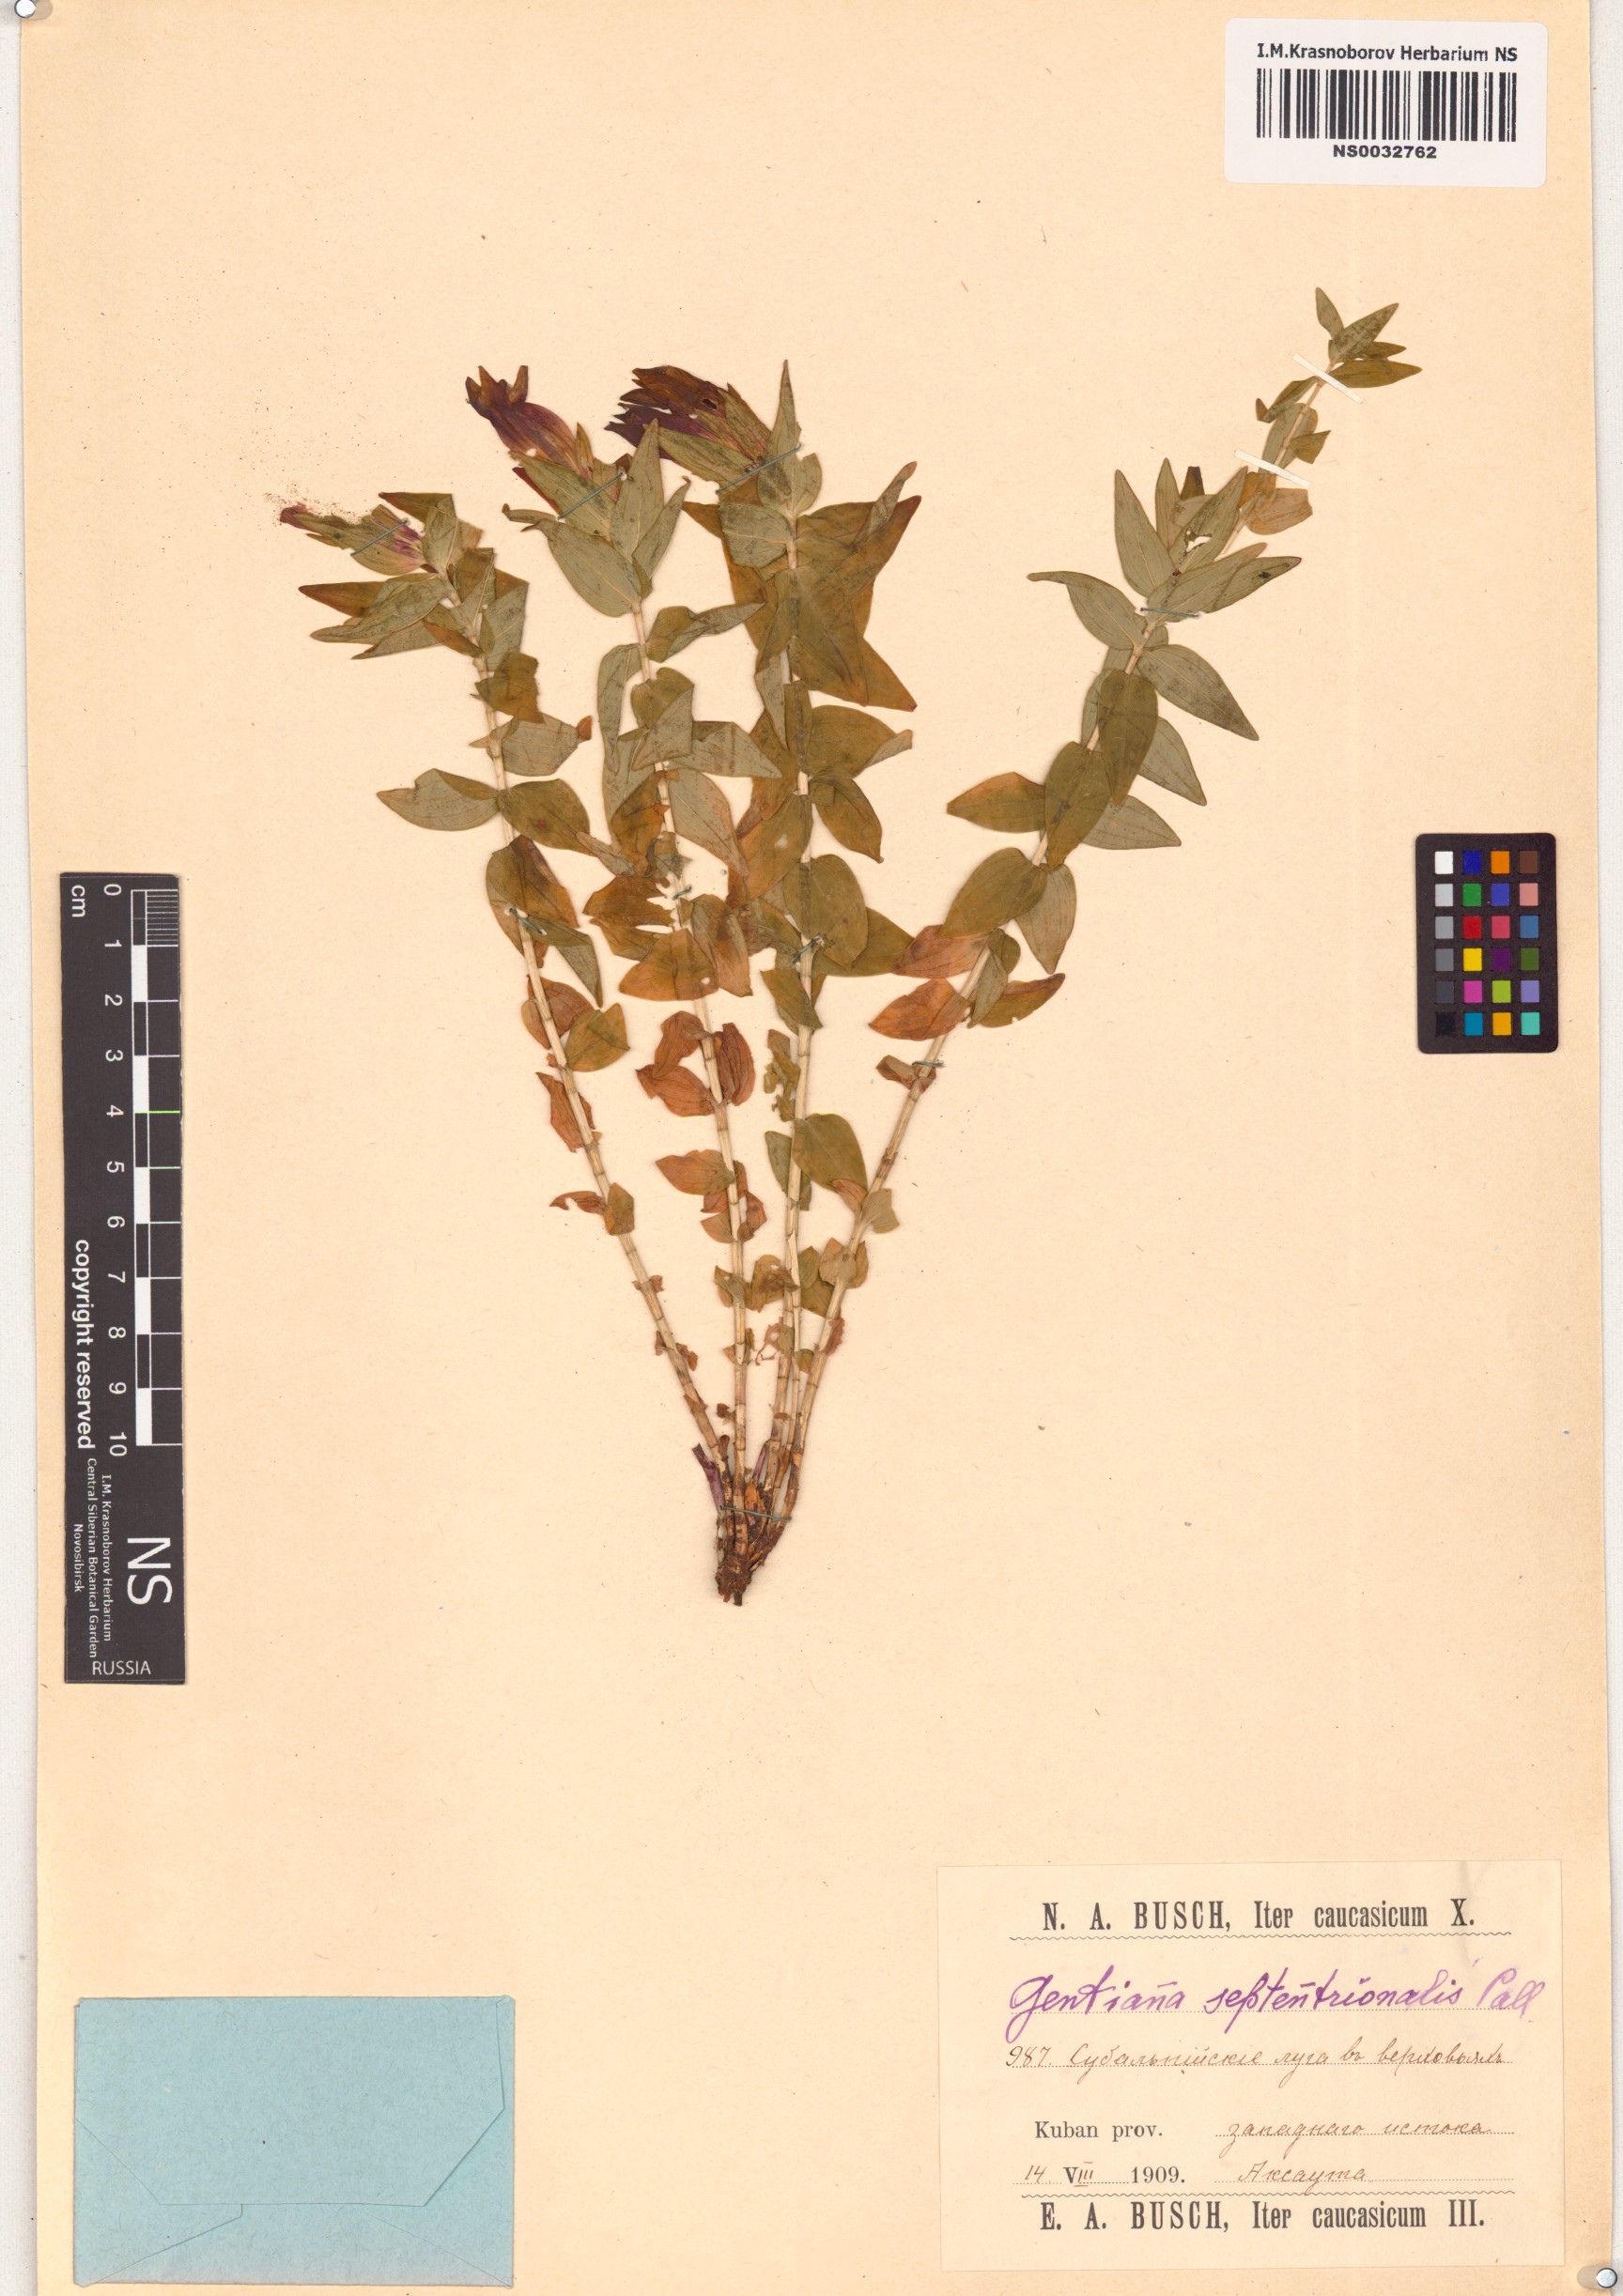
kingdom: Plantae
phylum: Tracheophyta
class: Magnoliopsida
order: Gentianales
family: Gentianaceae
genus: Gentianella
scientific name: Gentianella amarella
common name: Autumn gentian
